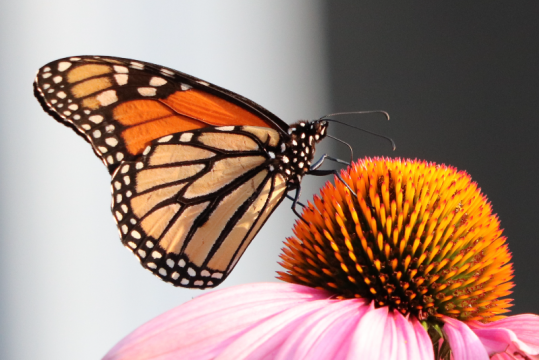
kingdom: Animalia
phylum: Arthropoda
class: Insecta
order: Lepidoptera
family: Nymphalidae
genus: Danaus
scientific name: Danaus plexippus
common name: Monarch
